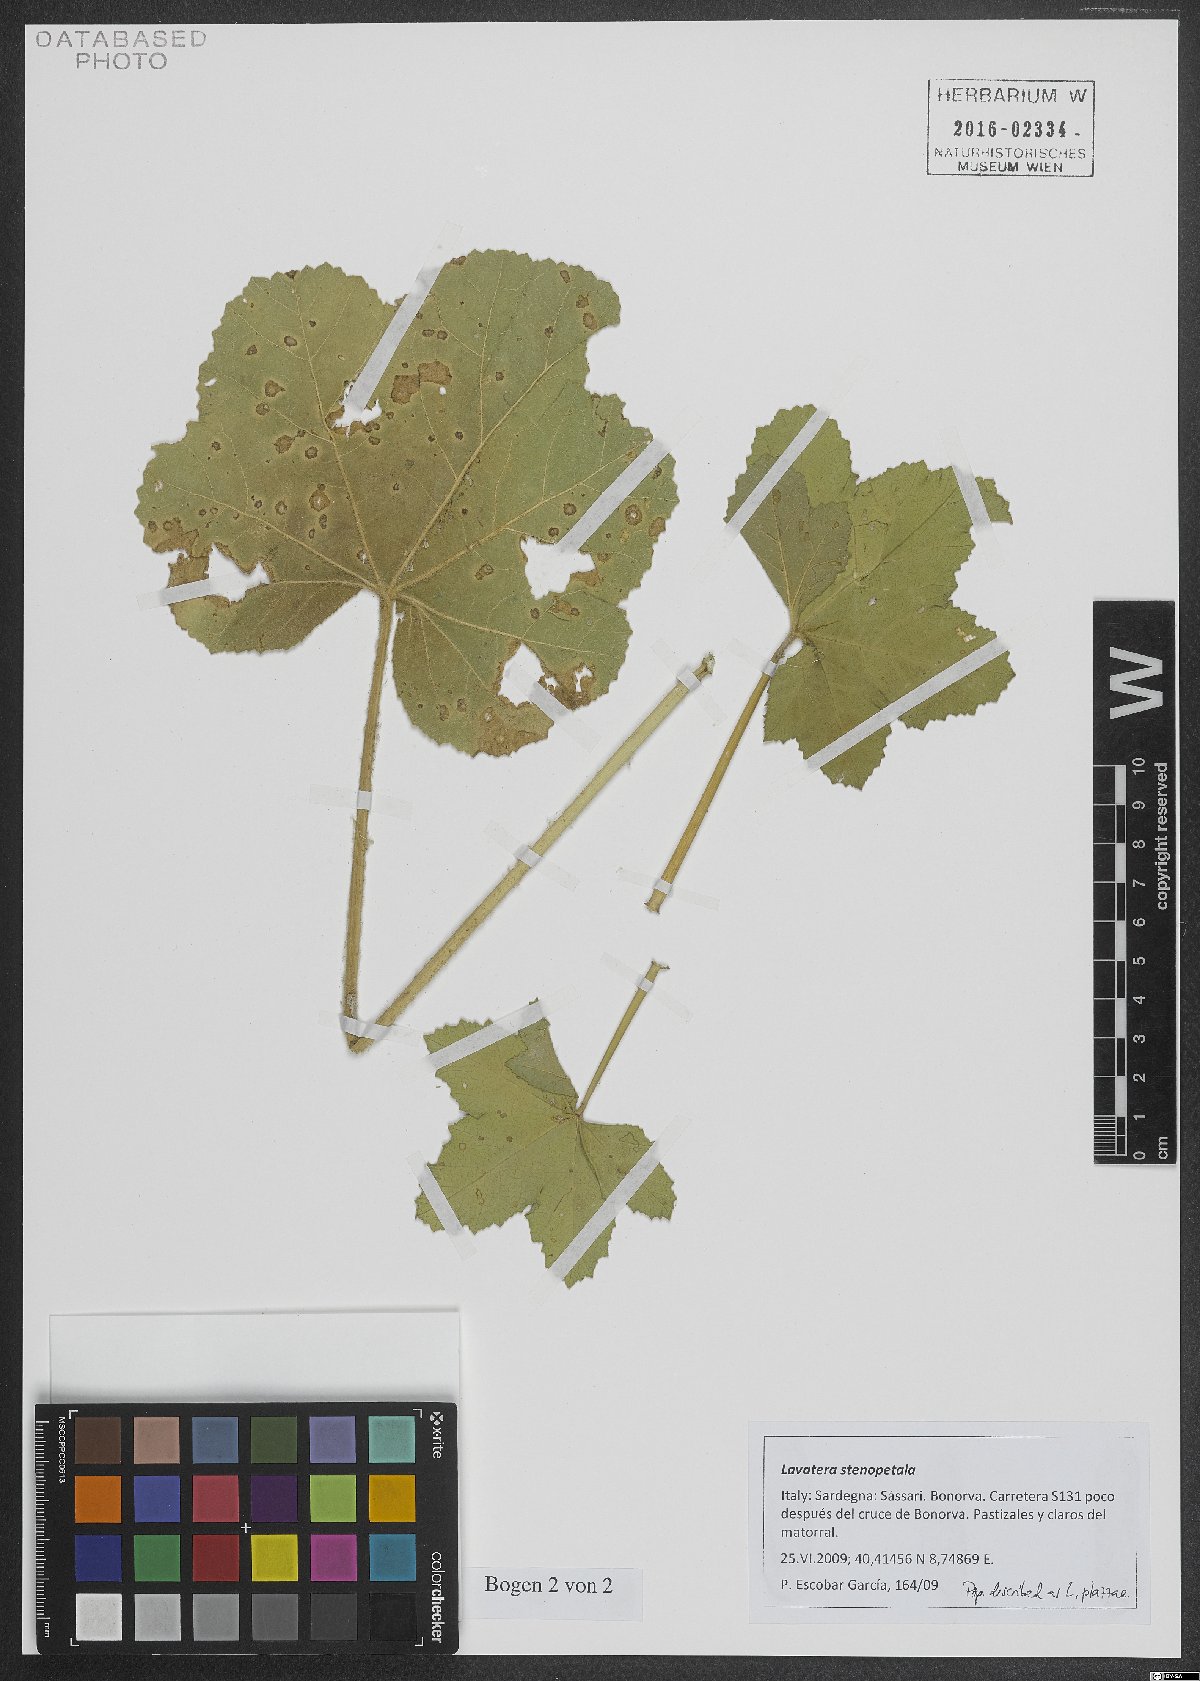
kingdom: Plantae
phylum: Tracheophyta
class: Magnoliopsida
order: Malvales
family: Malvaceae
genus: Malva
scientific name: Malva stenopetala
